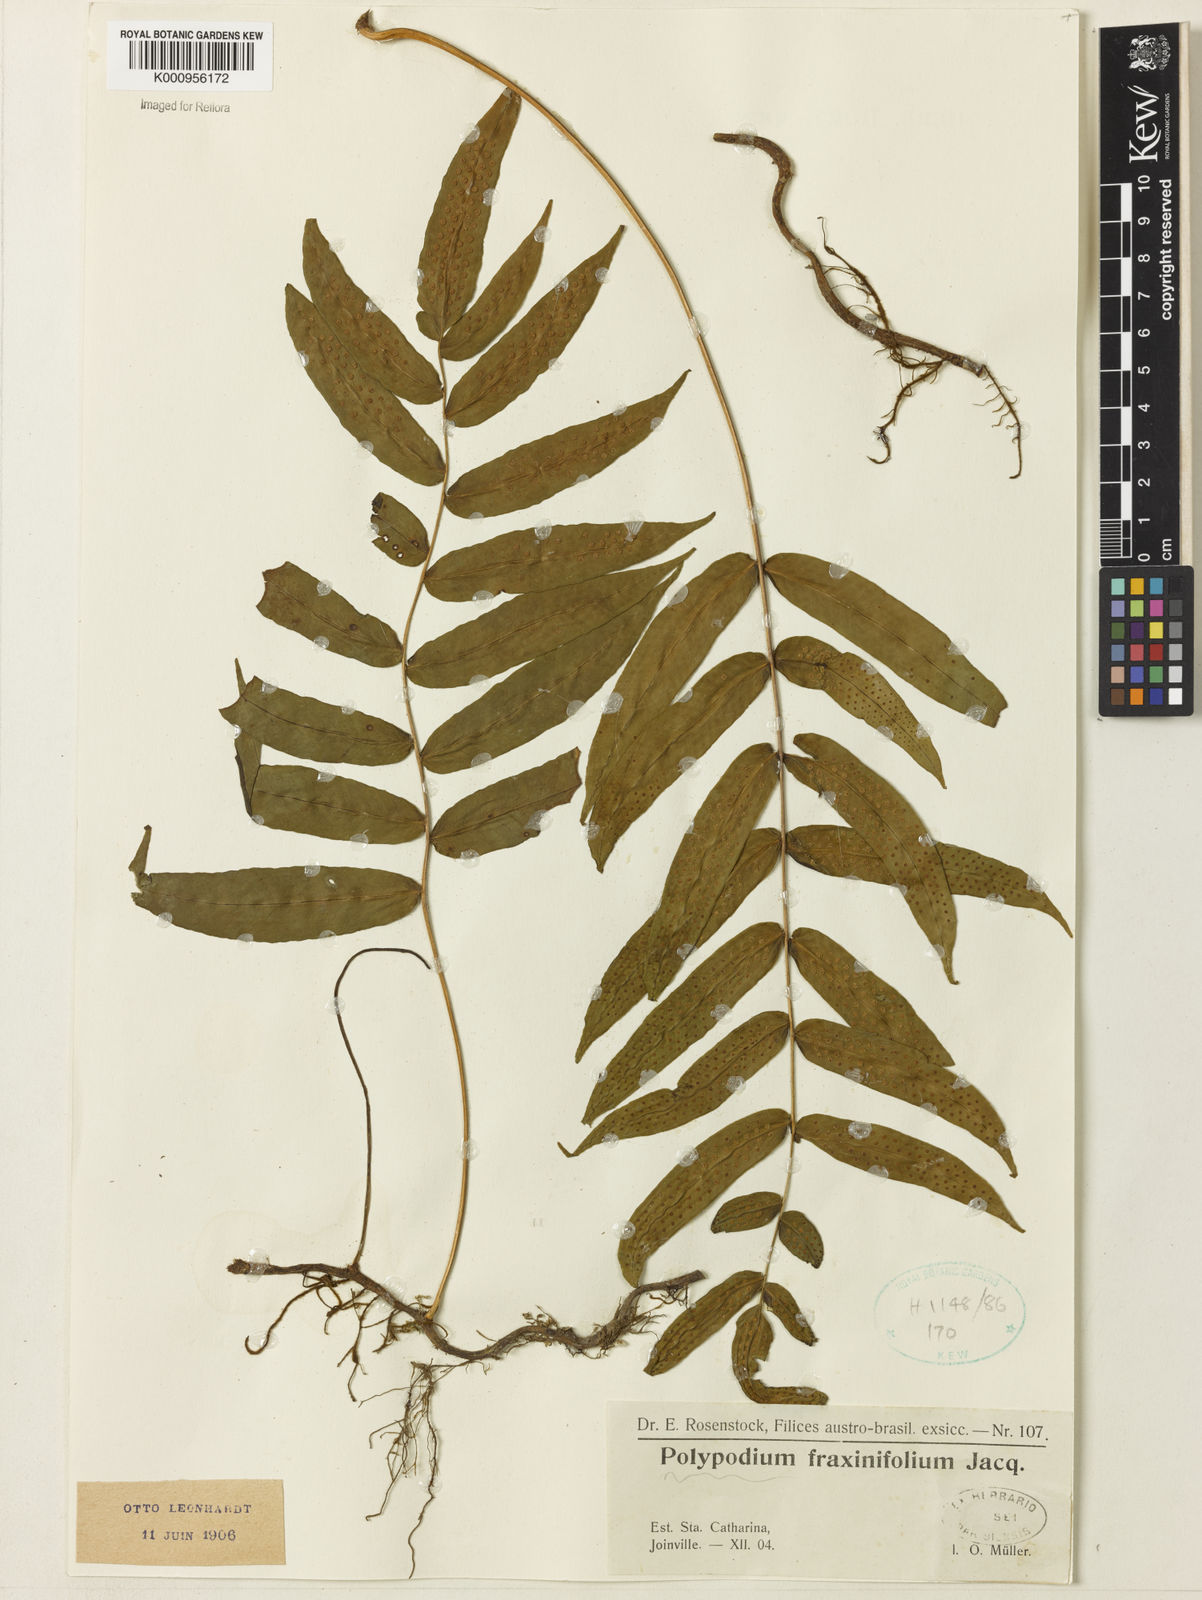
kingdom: Plantae
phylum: Tracheophyta
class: Polypodiopsida
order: Polypodiales
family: Polypodiaceae
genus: Serpocaulon
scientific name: Serpocaulon fraxinifolium
